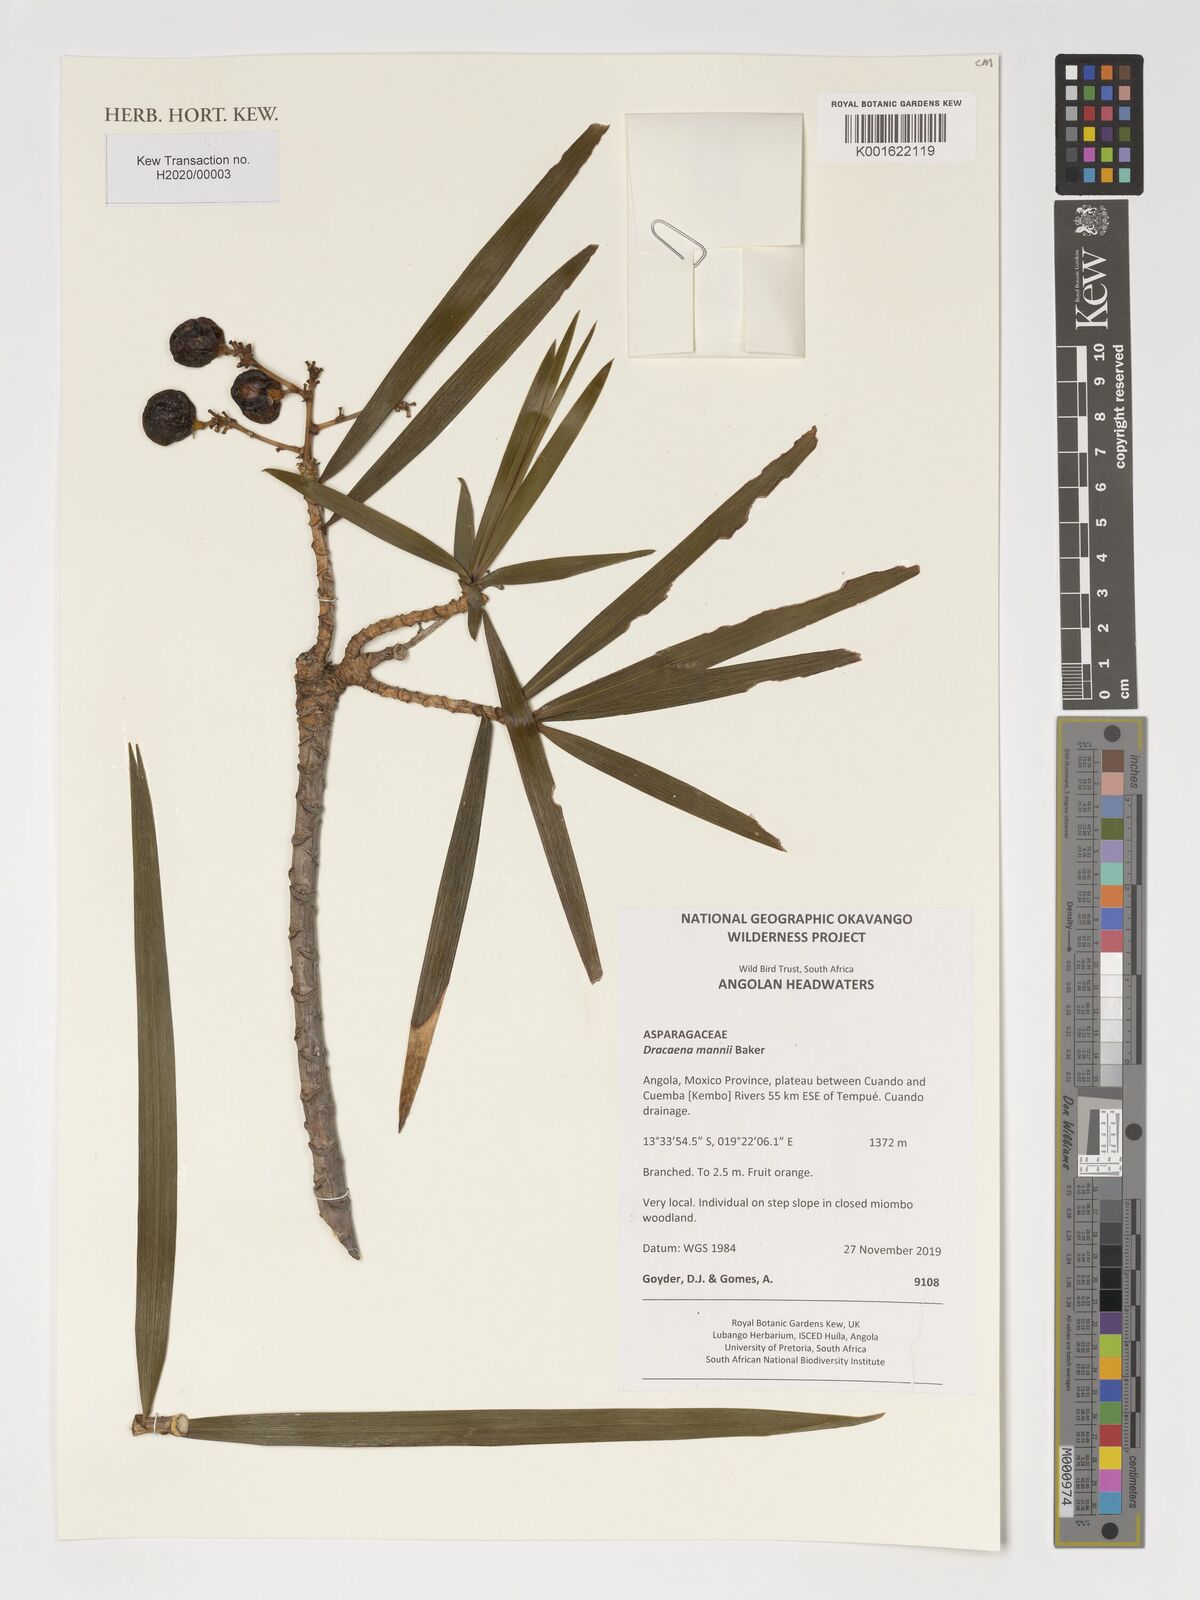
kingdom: Plantae
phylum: Tracheophyta
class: Liliopsida
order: Asparagales
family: Asparagaceae
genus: Dracaena
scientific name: Dracaena mannii
